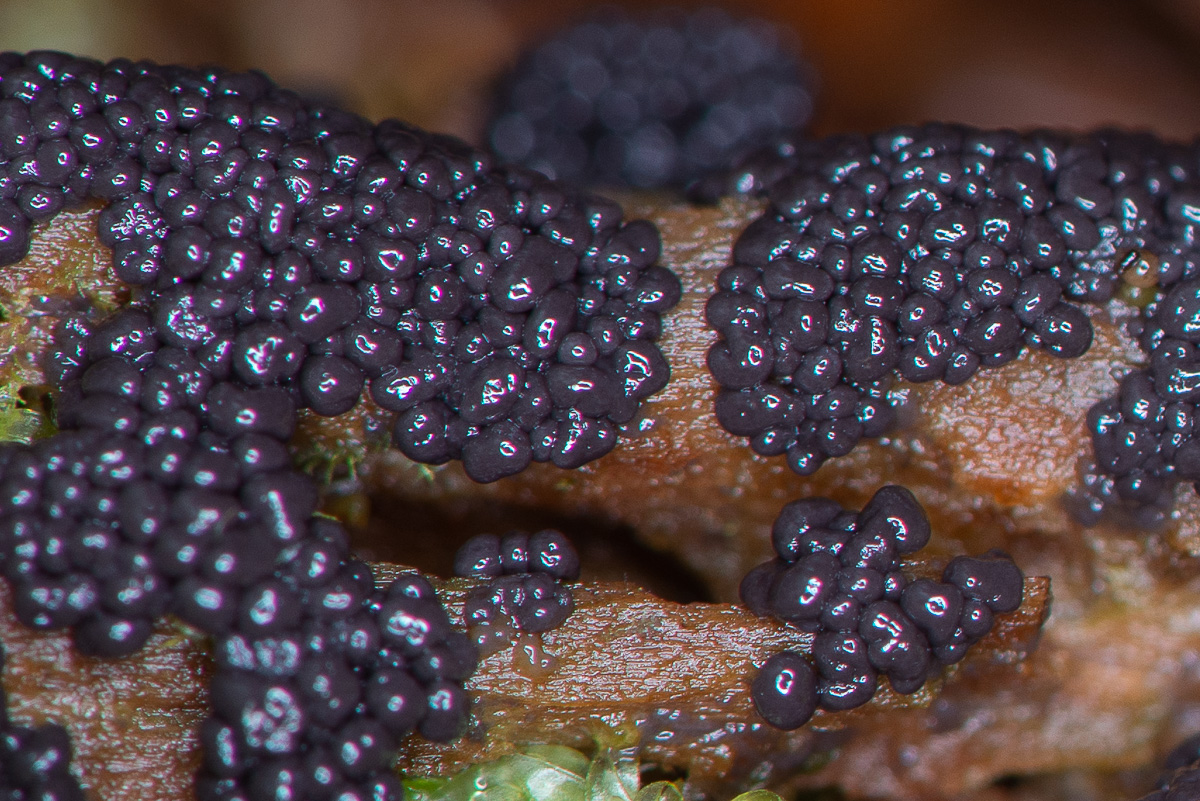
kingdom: Protozoa
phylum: Mycetozoa
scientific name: Mycetozoa
